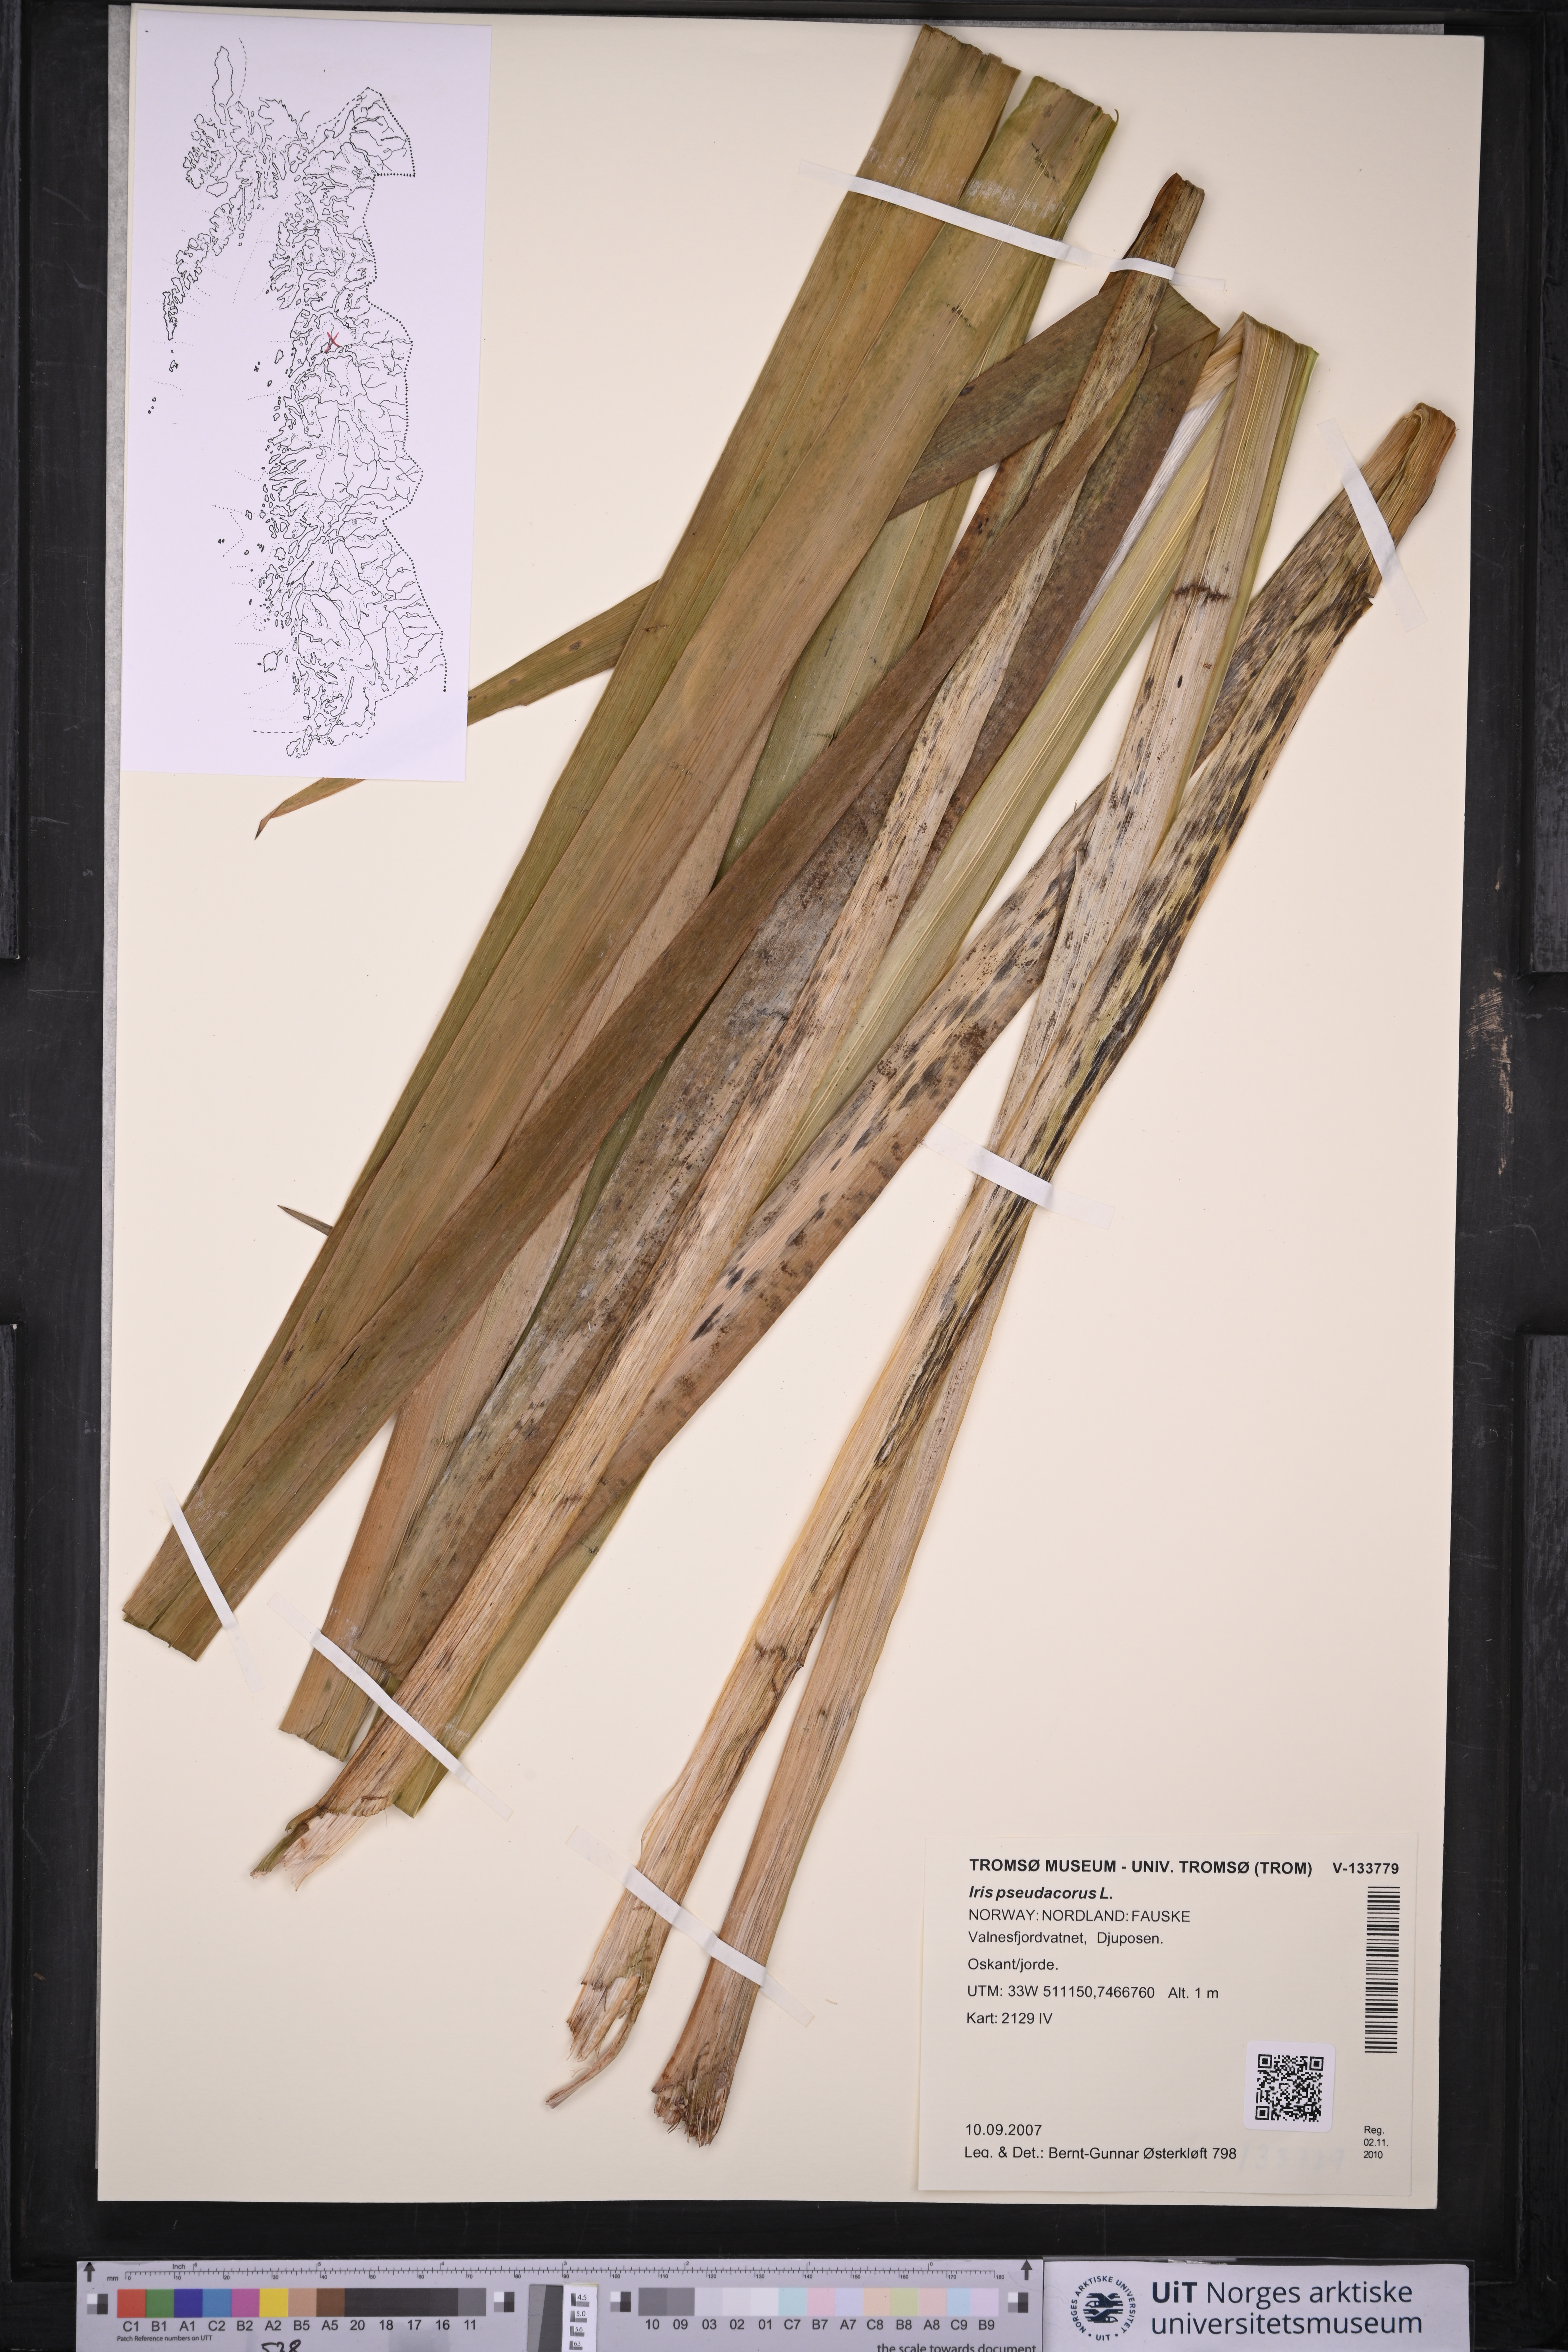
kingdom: Plantae
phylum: Tracheophyta
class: Liliopsida
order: Asparagales
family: Iridaceae
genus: Iris
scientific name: Iris pseudacorus
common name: Yellow flag
